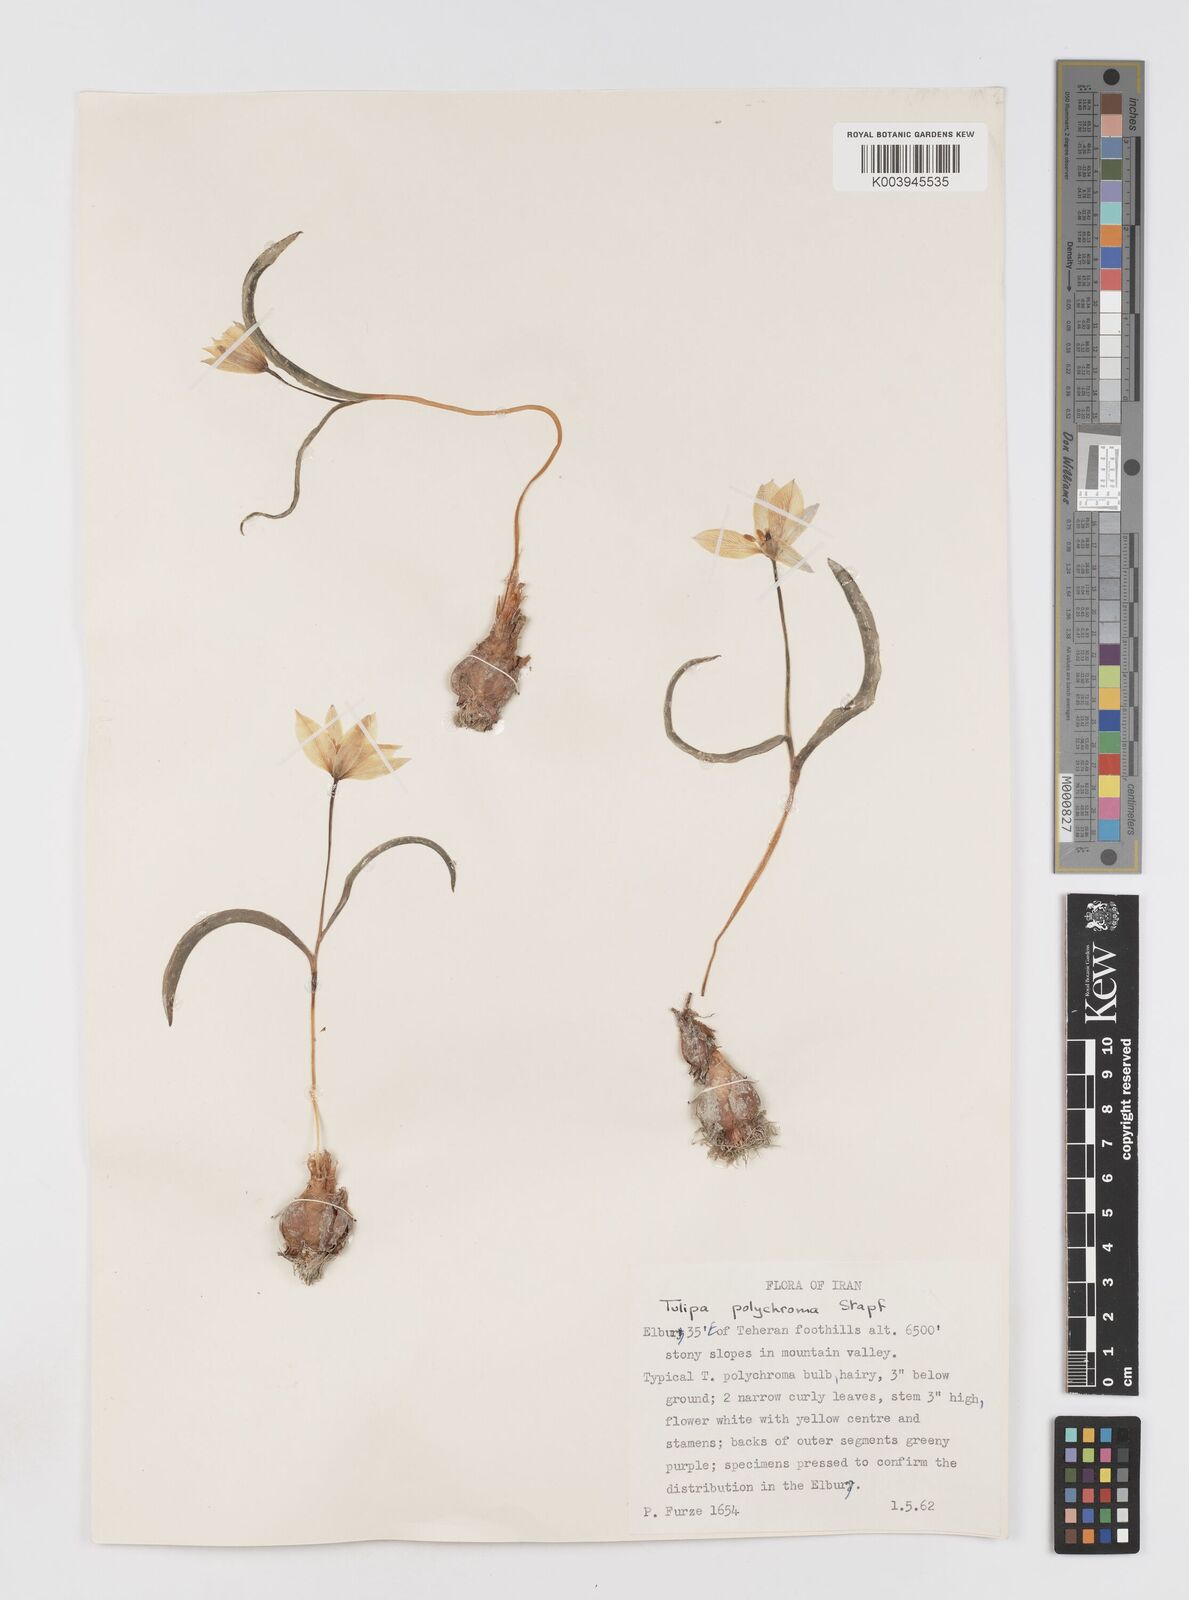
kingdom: Plantae
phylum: Tracheophyta
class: Liliopsida
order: Liliales
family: Liliaceae
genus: Tulipa
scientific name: Tulipa biflora
